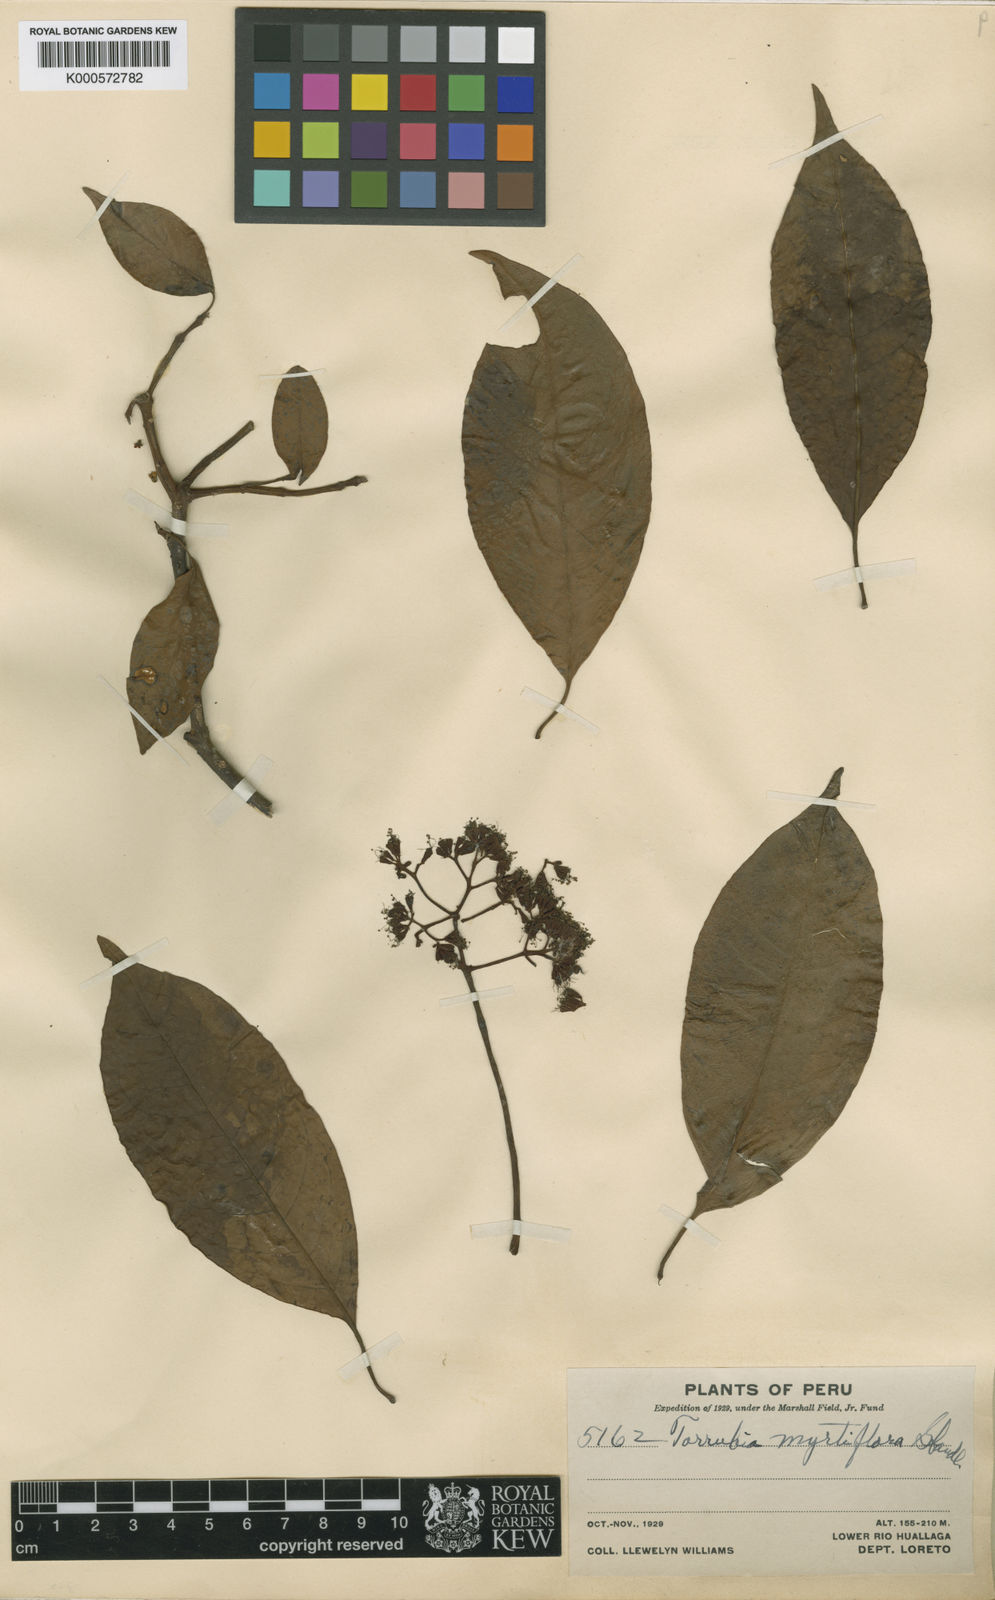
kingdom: Plantae
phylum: Tracheophyta
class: Magnoliopsida
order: Caryophyllales
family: Nyctaginaceae
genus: Guapira
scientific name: Guapira
